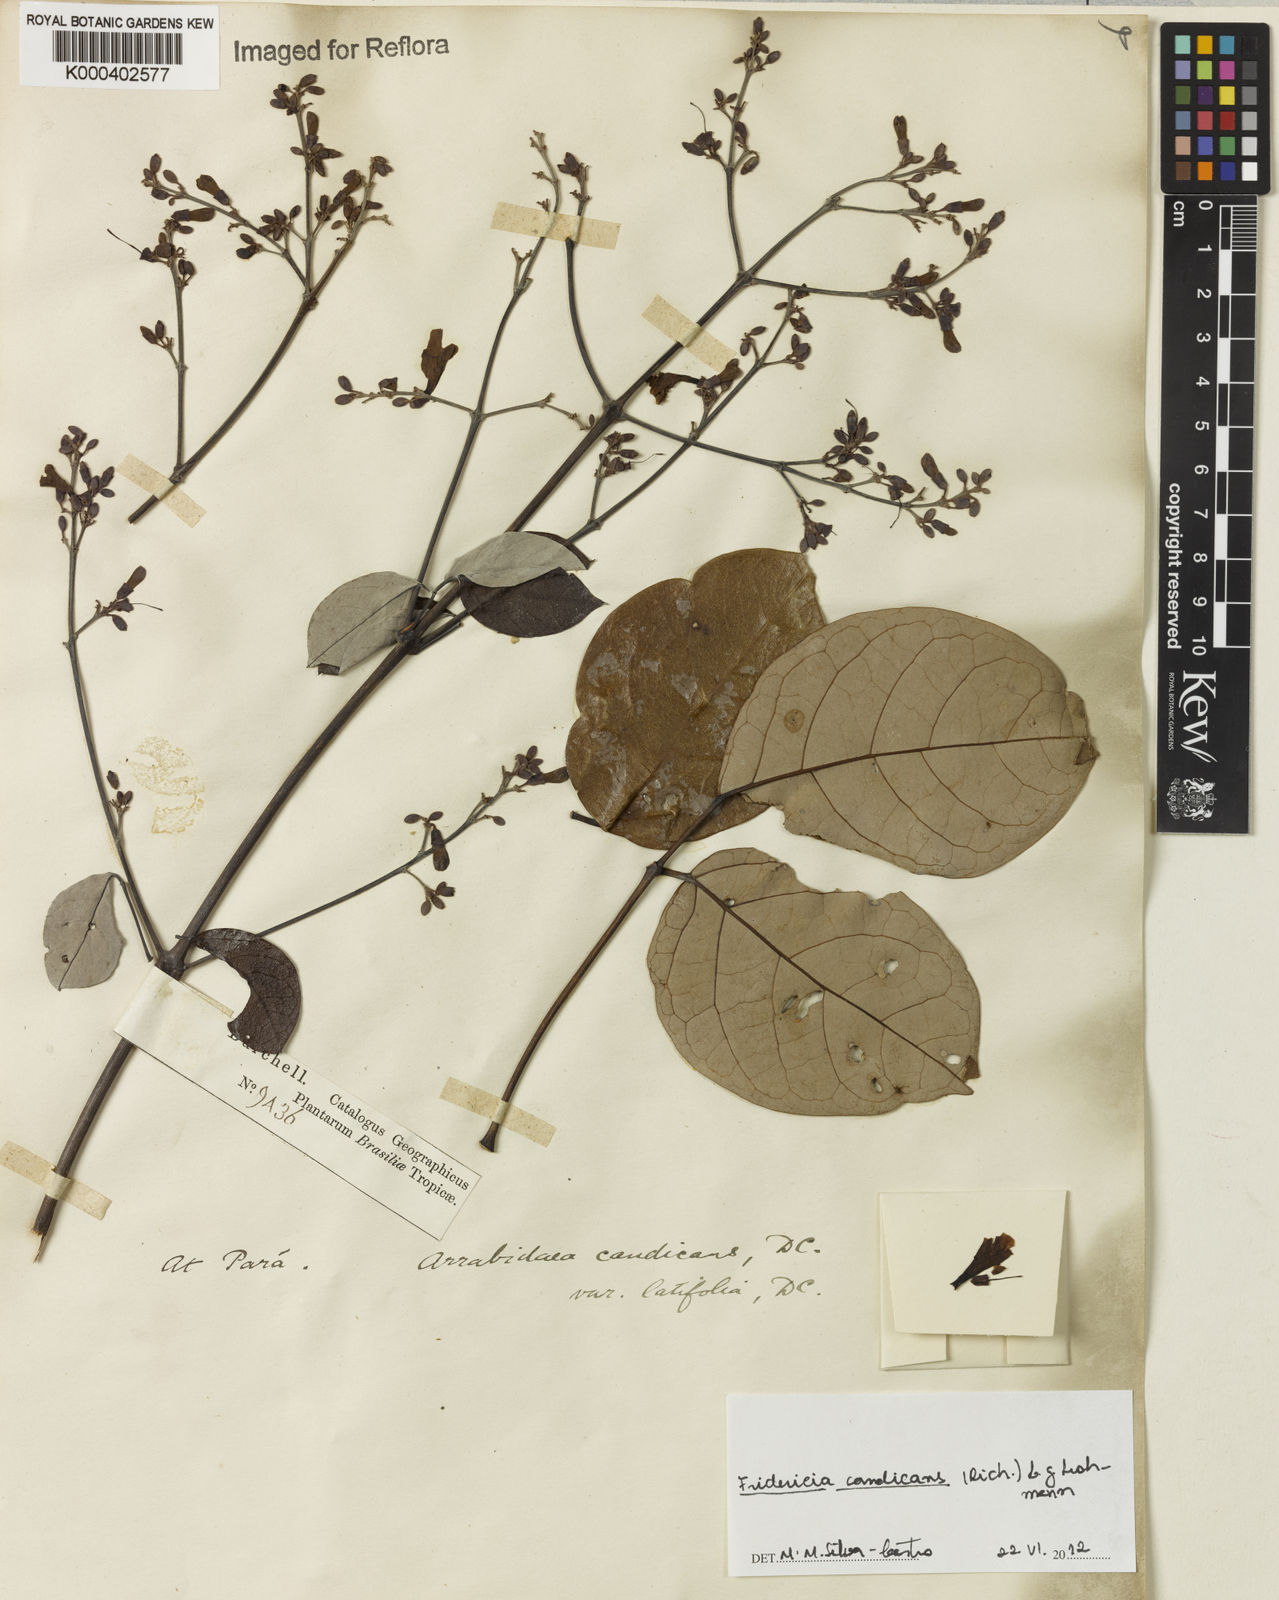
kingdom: Plantae
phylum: Tracheophyta
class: Magnoliopsida
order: Lamiales
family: Bignoniaceae
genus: Fridericia
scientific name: Fridericia
